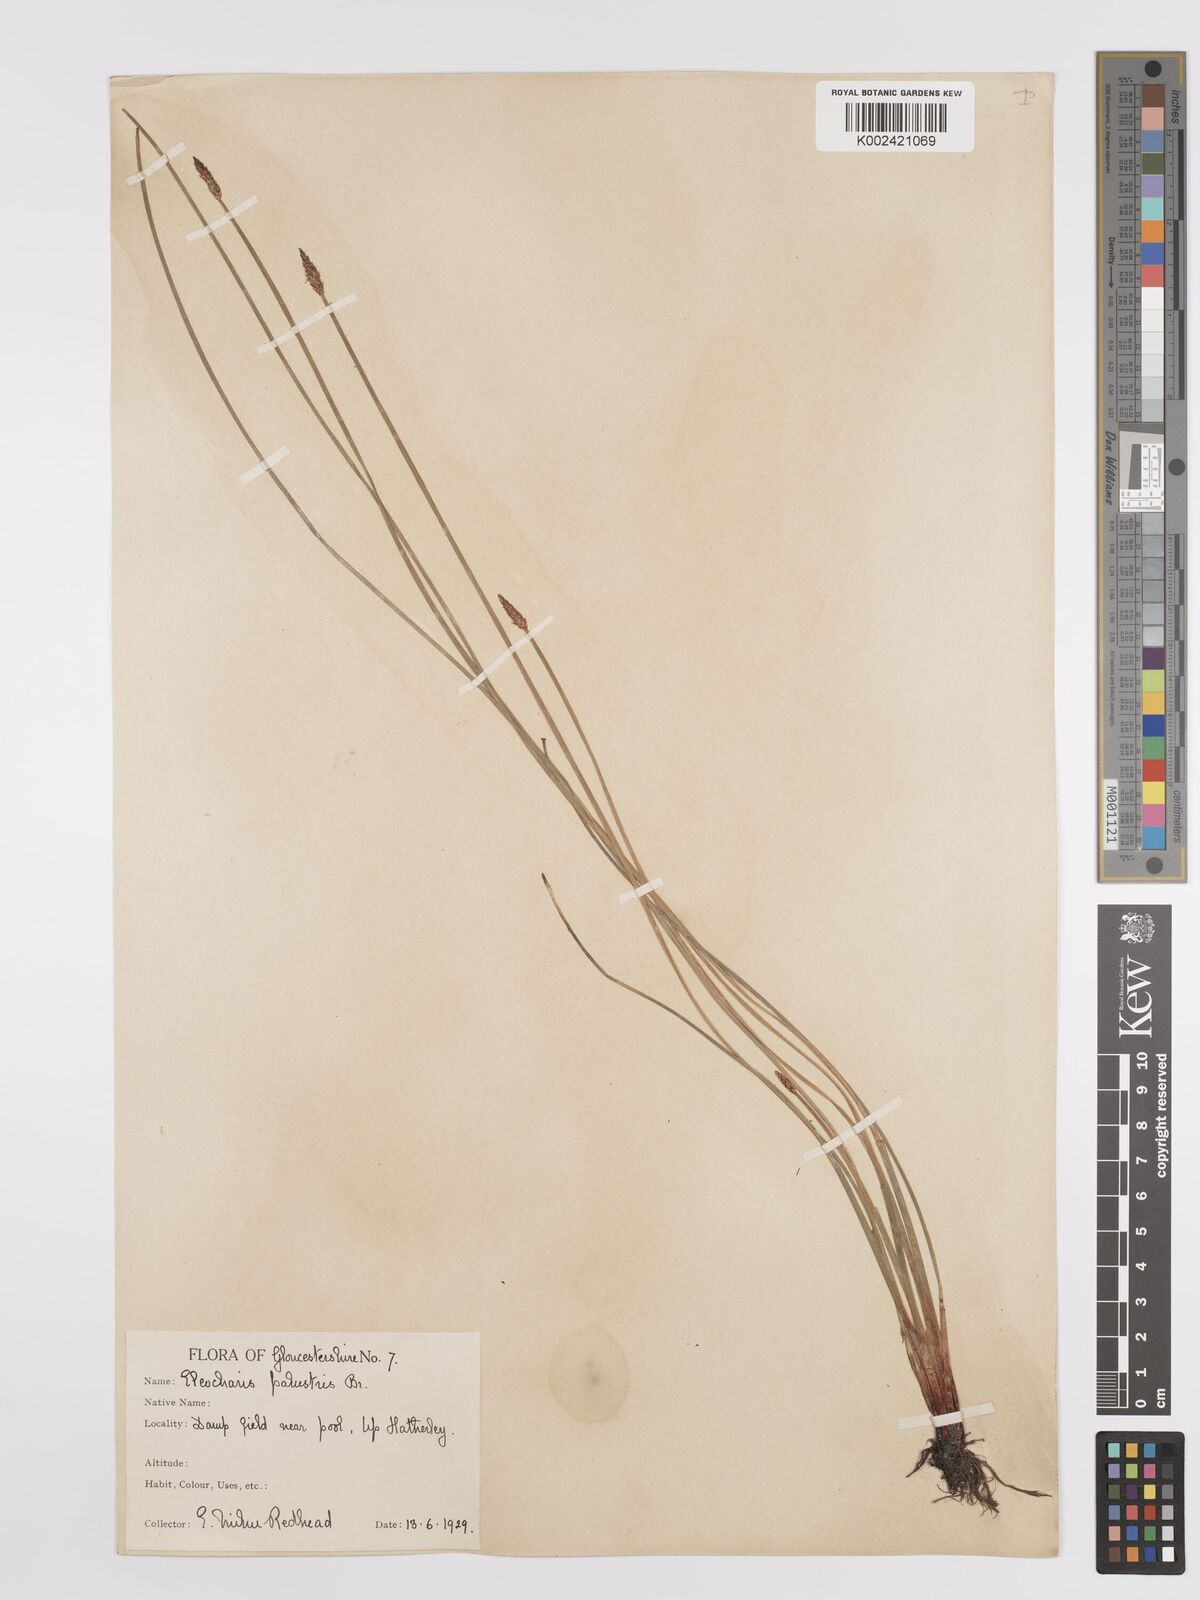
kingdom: Plantae
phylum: Tracheophyta
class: Liliopsida
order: Poales
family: Cyperaceae
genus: Eleocharis
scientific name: Eleocharis palustris
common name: Common spike-rush
